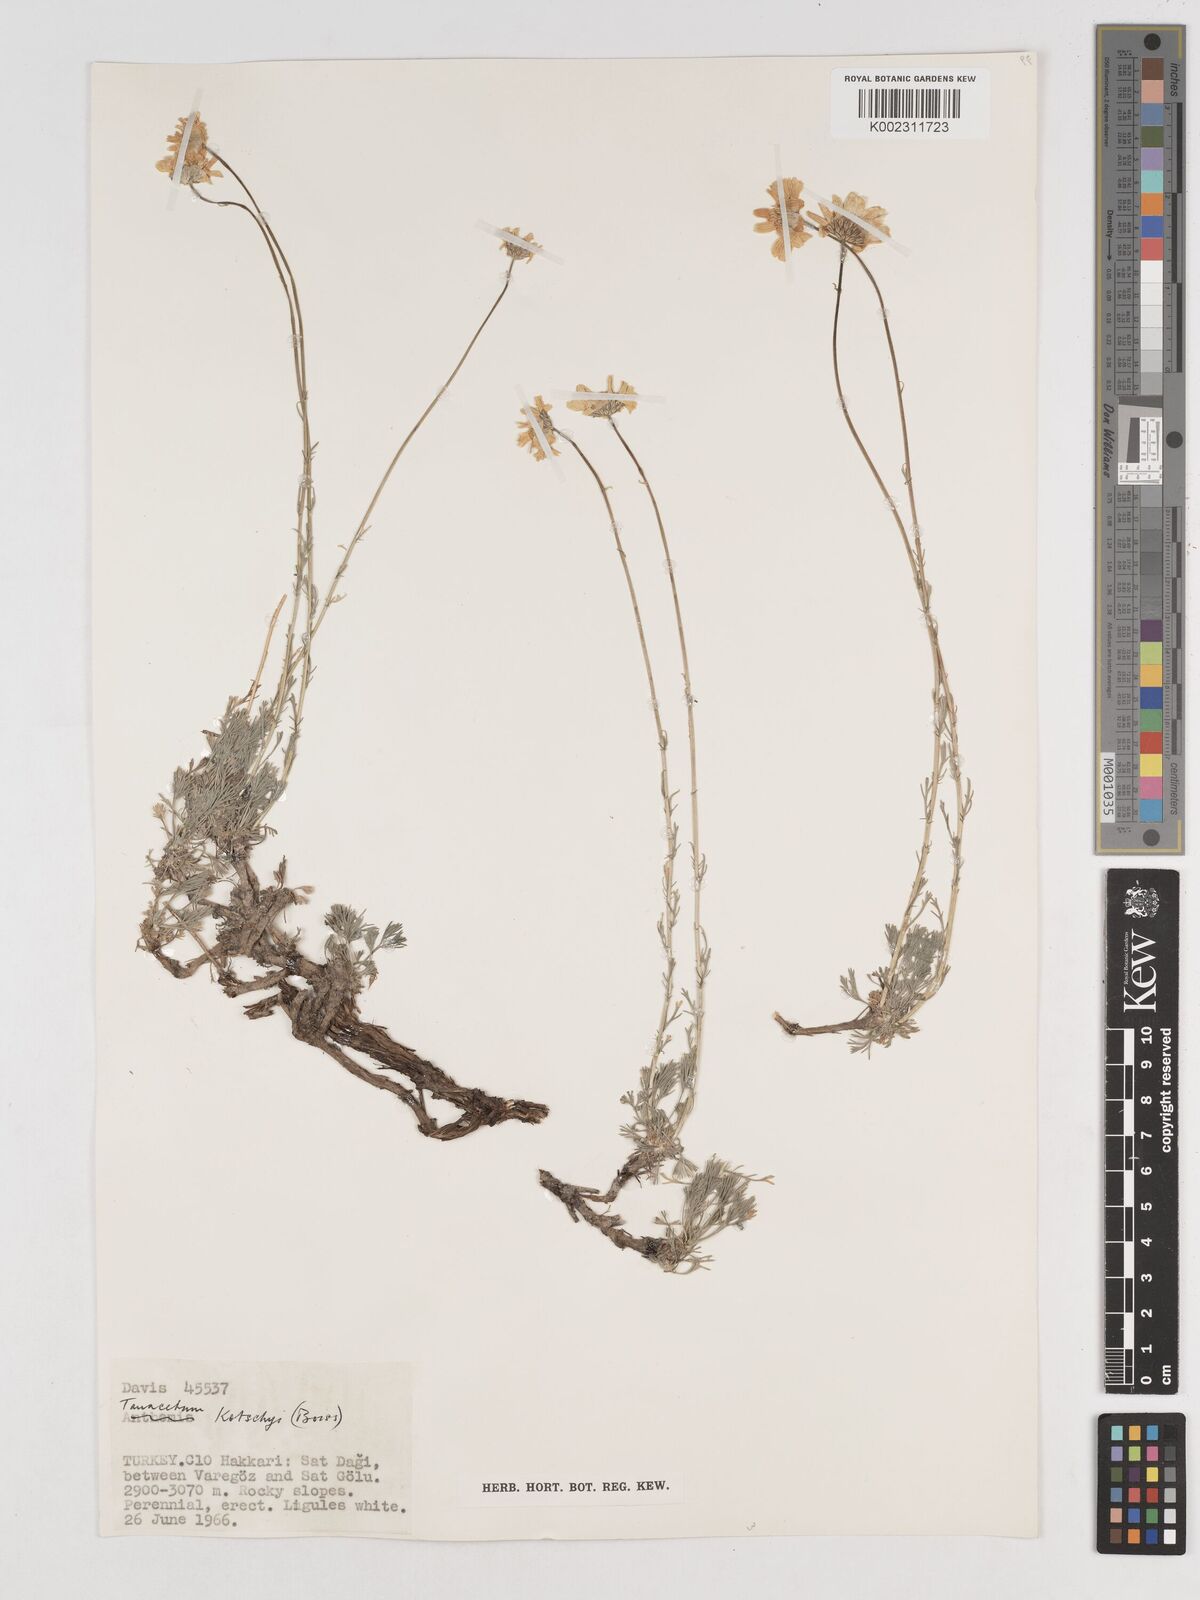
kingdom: Plantae
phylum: Tracheophyta
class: Magnoliopsida
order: Asterales
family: Asteraceae
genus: Tanacetum
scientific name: Tanacetum kotschyi
